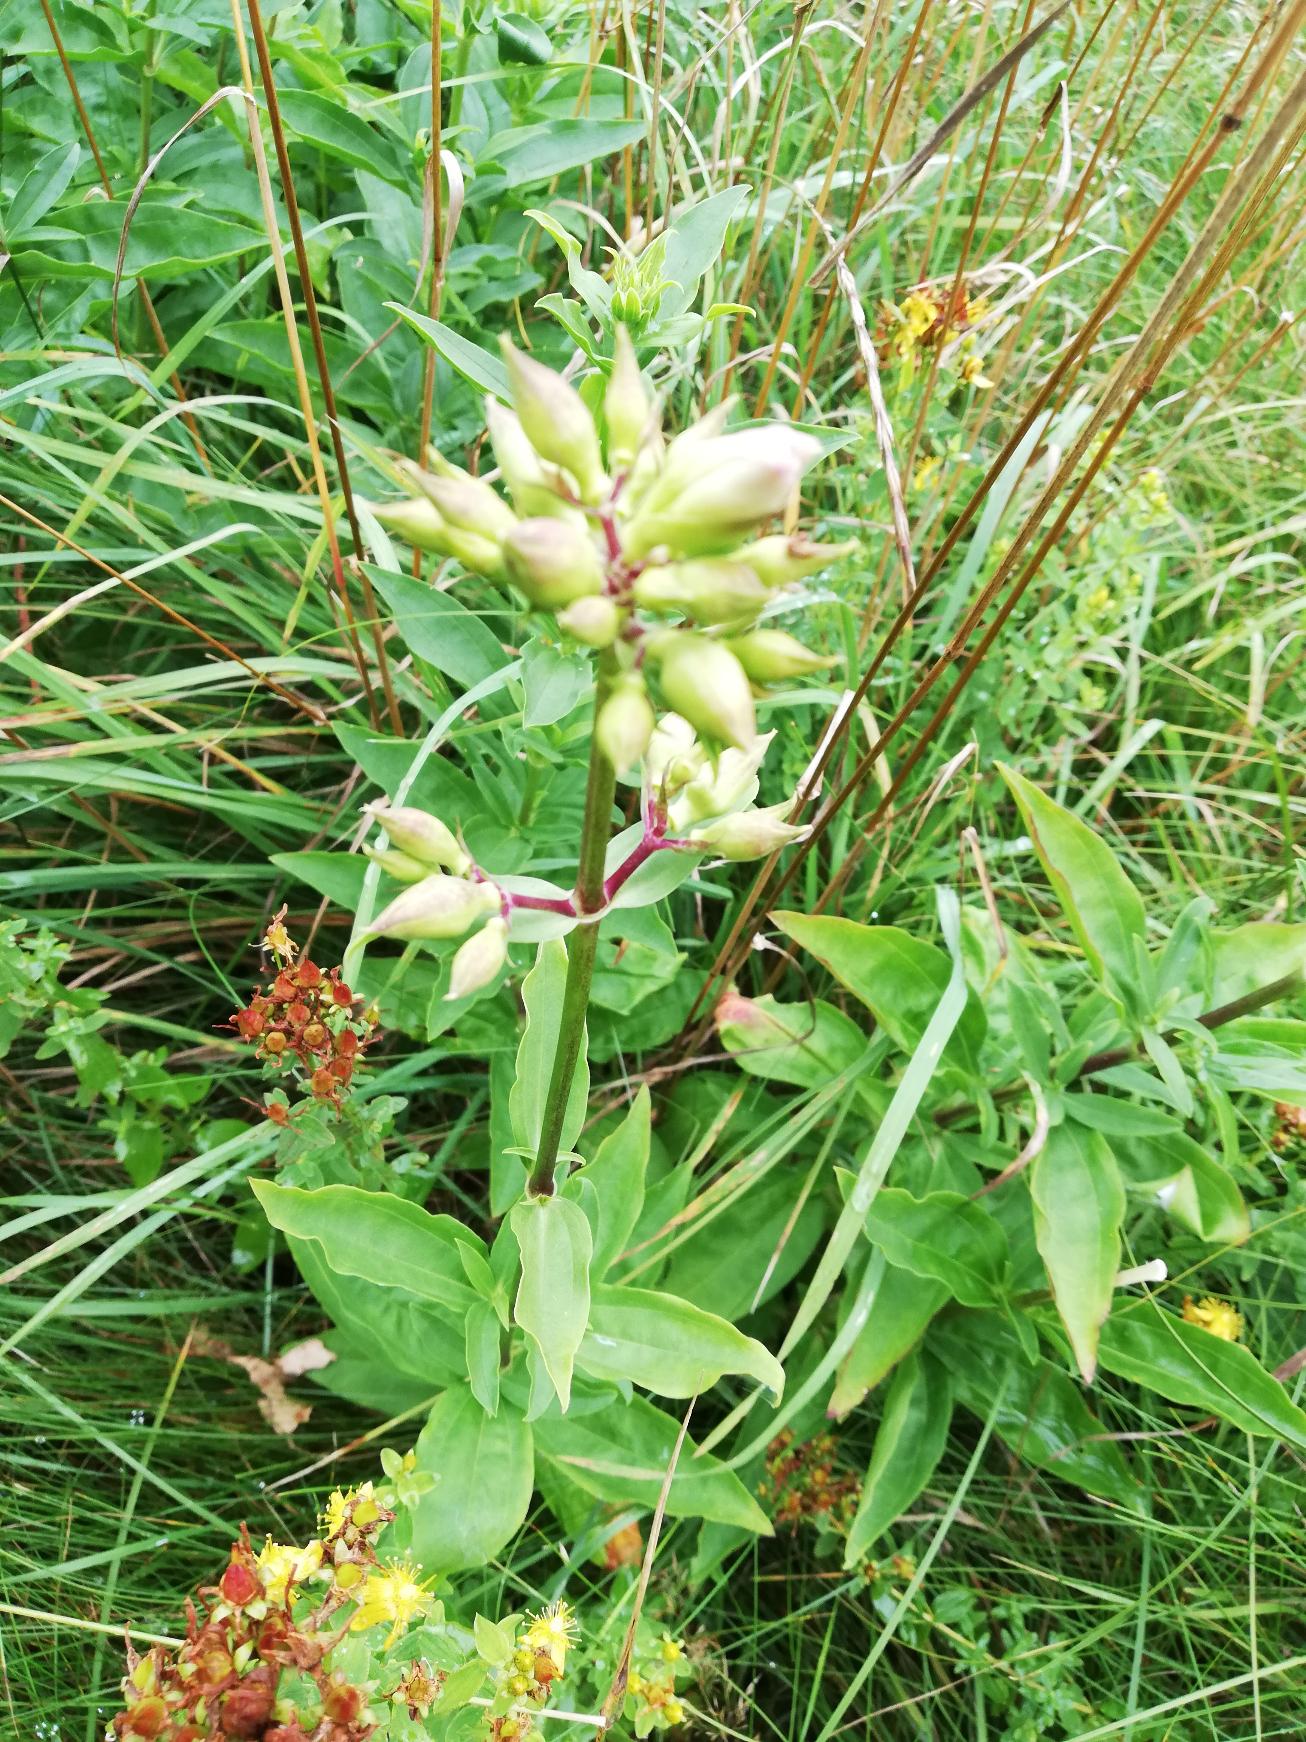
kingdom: Plantae
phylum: Tracheophyta
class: Magnoliopsida
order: Caryophyllales
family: Caryophyllaceae
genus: Saponaria
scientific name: Saponaria officinalis
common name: Sæbeurt
